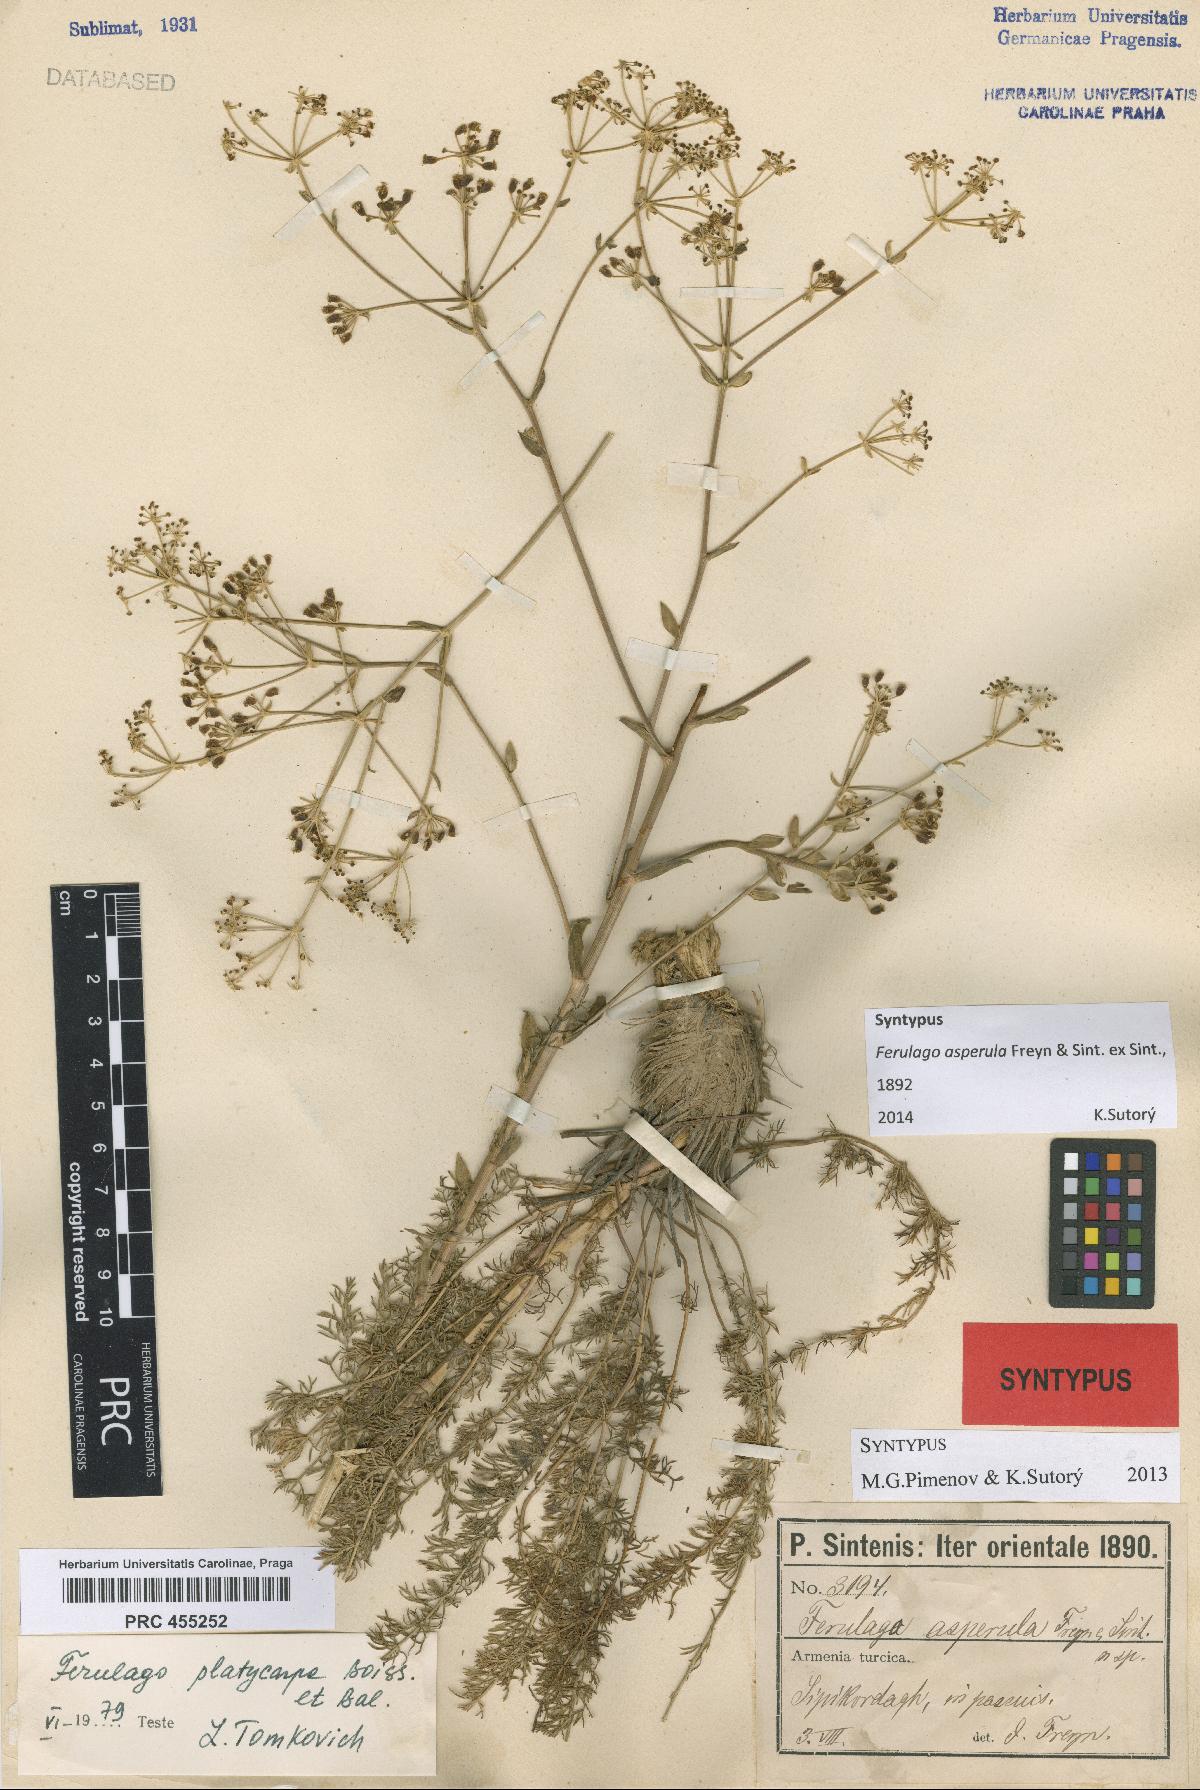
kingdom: Plantae
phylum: Tracheophyta
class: Magnoliopsida
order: Apiales
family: Apiaceae
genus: Ferulago
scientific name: Ferulago platycarpa
